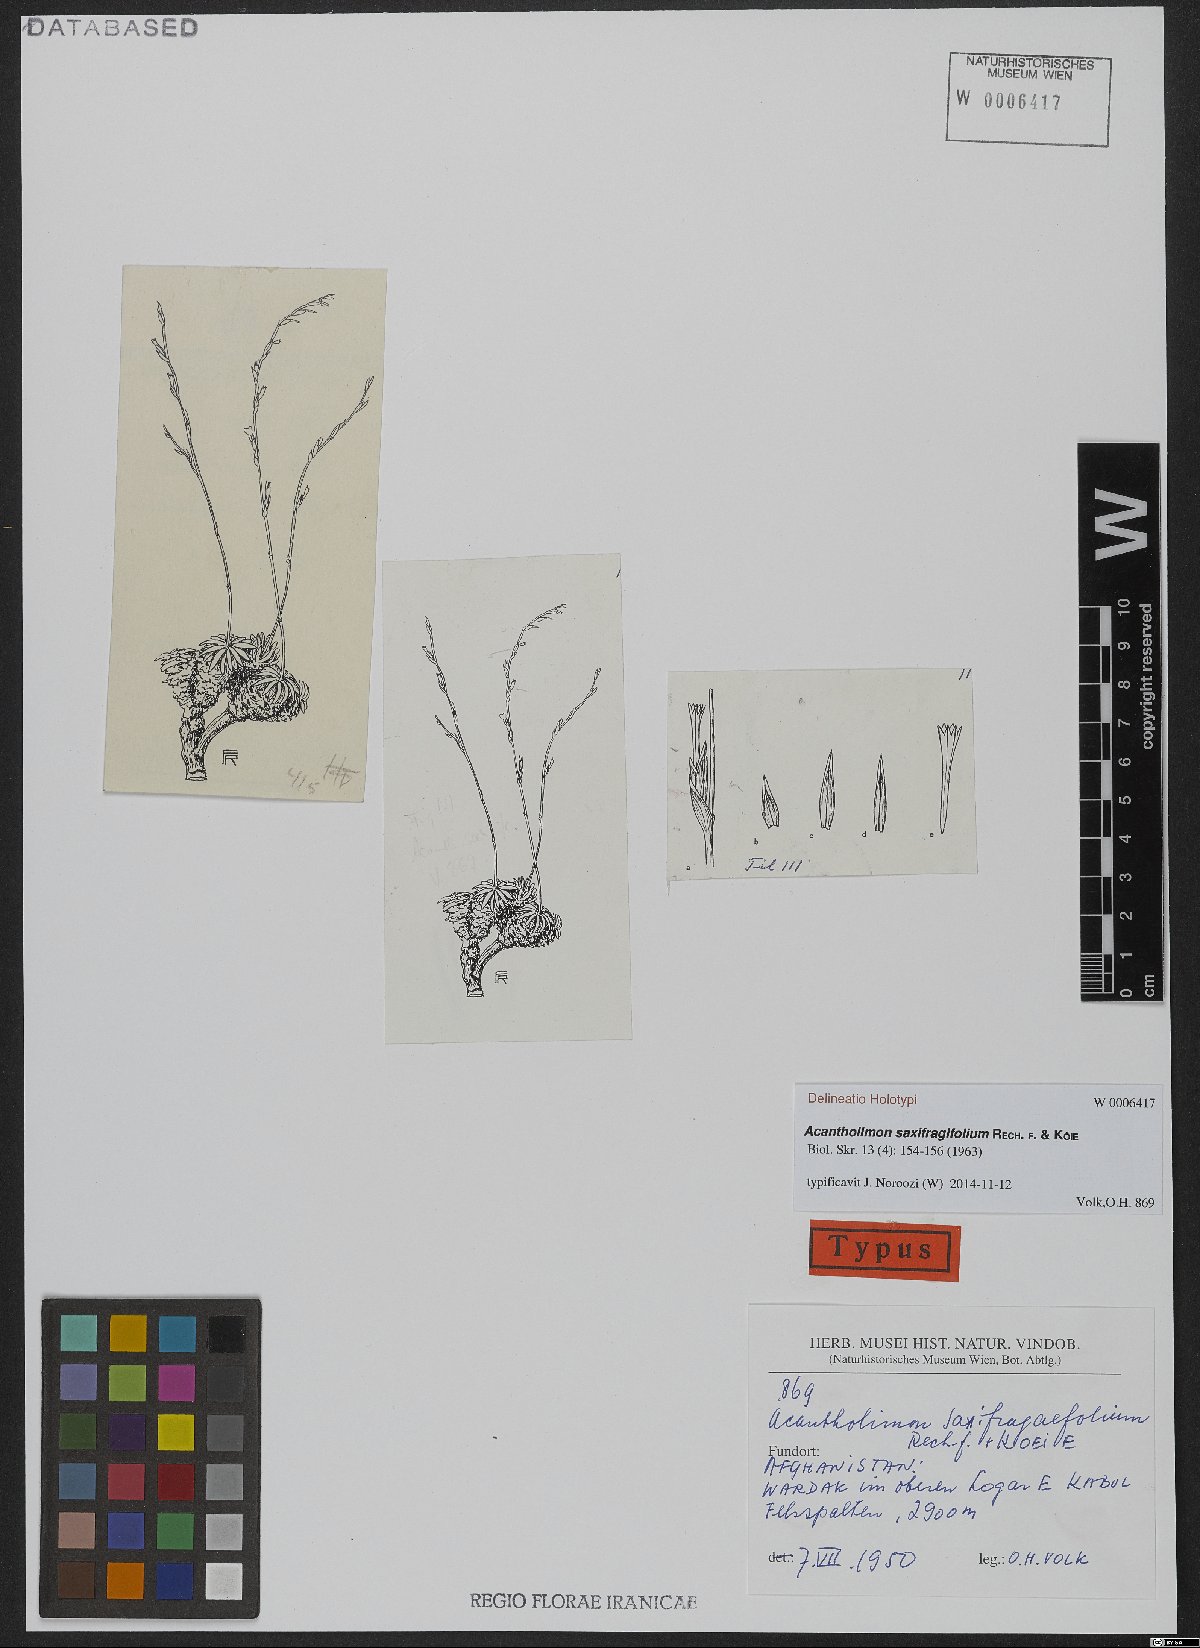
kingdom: Plantae
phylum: Tracheophyta
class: Magnoliopsida
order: Caryophyllales
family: Plumbaginaceae
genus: Neogontscharovia
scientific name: Neogontscharovia saxifragifolia
